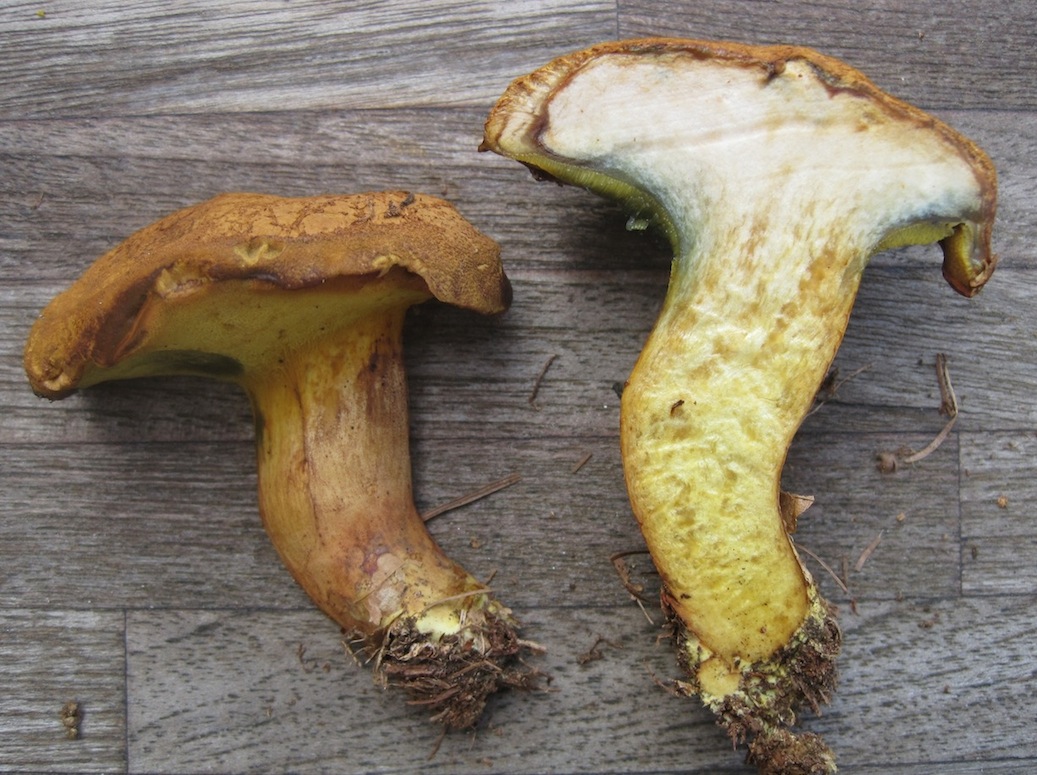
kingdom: Fungi
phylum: Basidiomycota
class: Agaricomycetes
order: Boletales
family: Boletaceae
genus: Buchwaldoboletus
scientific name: Buchwaldoboletus lignicola
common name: stødrørhat
